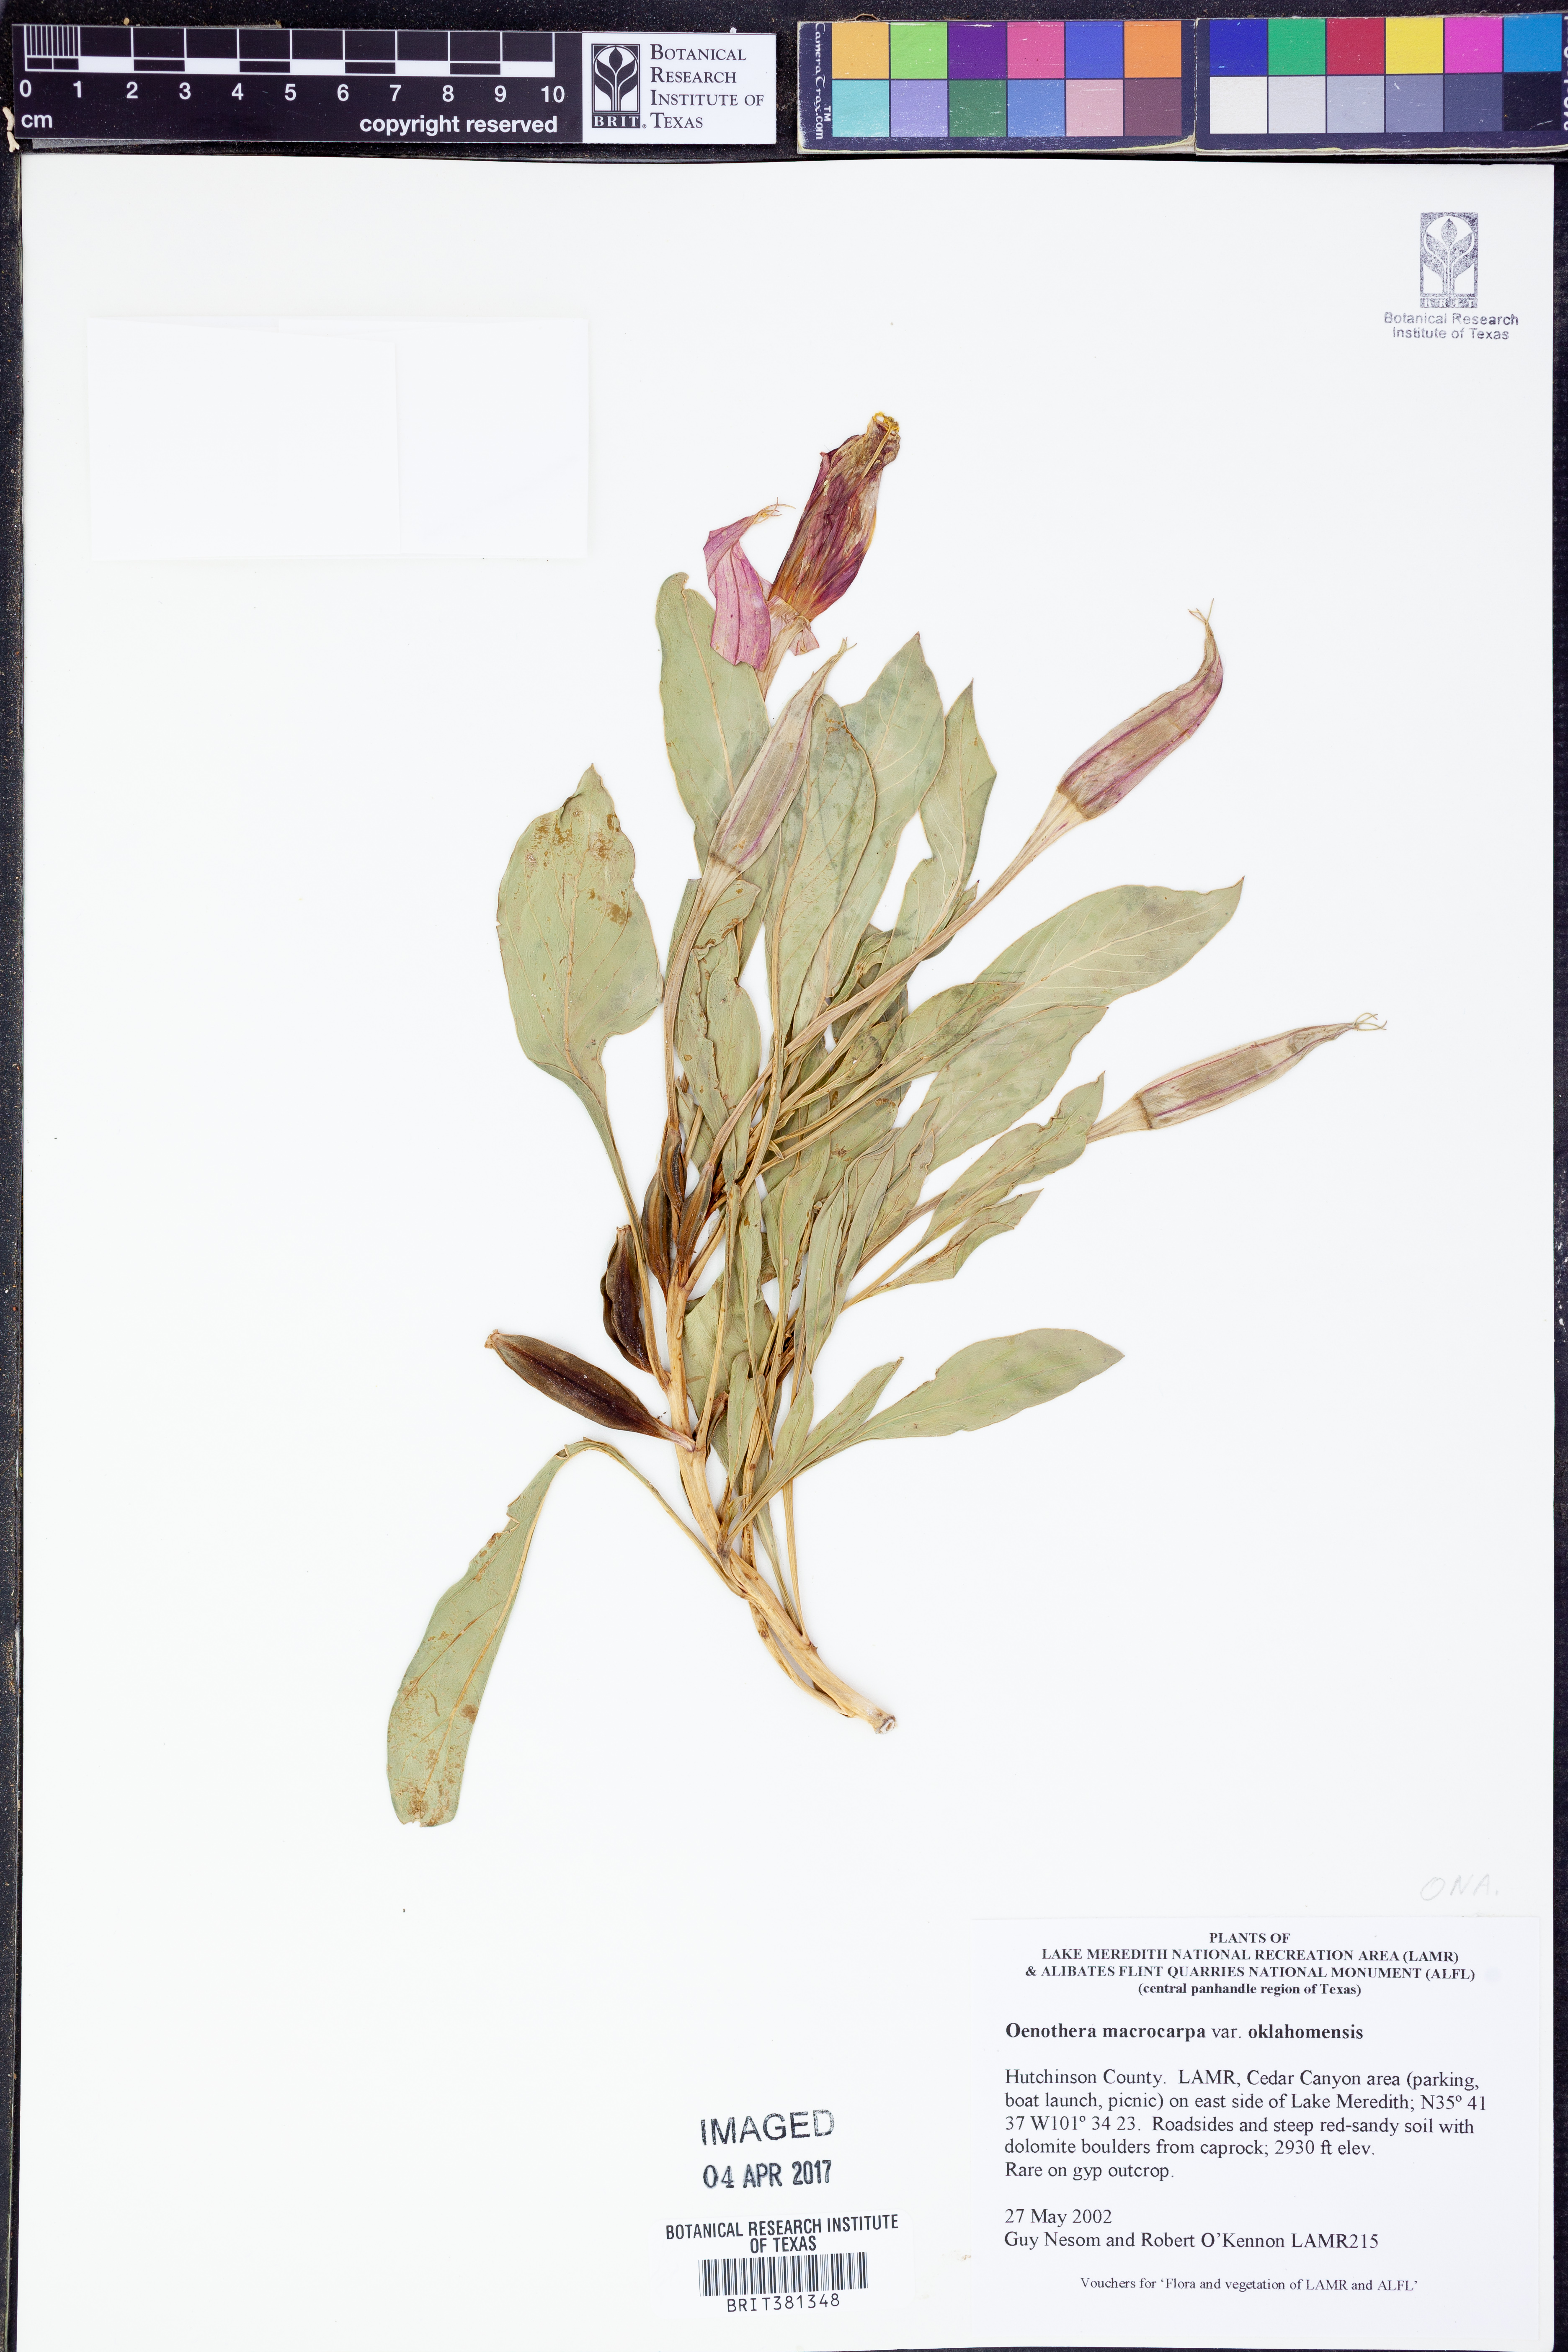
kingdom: Plantae
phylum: Tracheophyta
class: Magnoliopsida
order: Myrtales
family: Onagraceae
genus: Oenothera
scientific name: Oenothera macrocarpa
